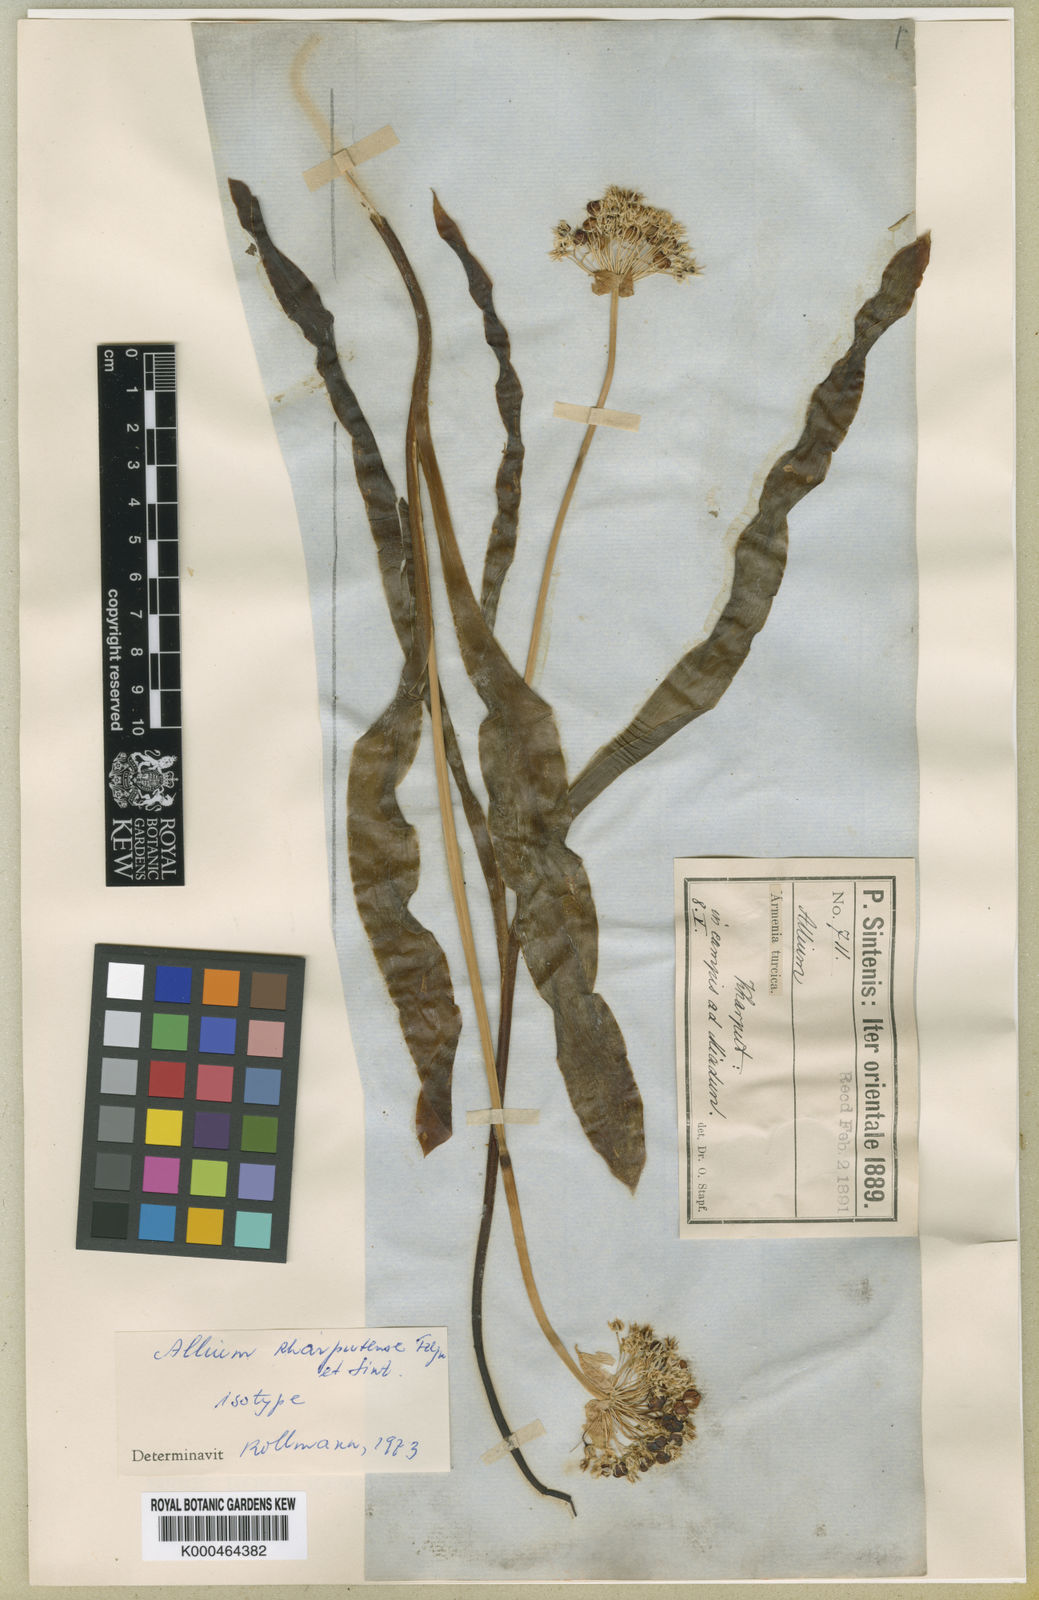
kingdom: Plantae
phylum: Tracheophyta
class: Liliopsida
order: Asparagales
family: Amaryllidaceae
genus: Allium
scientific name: Allium kharputense
